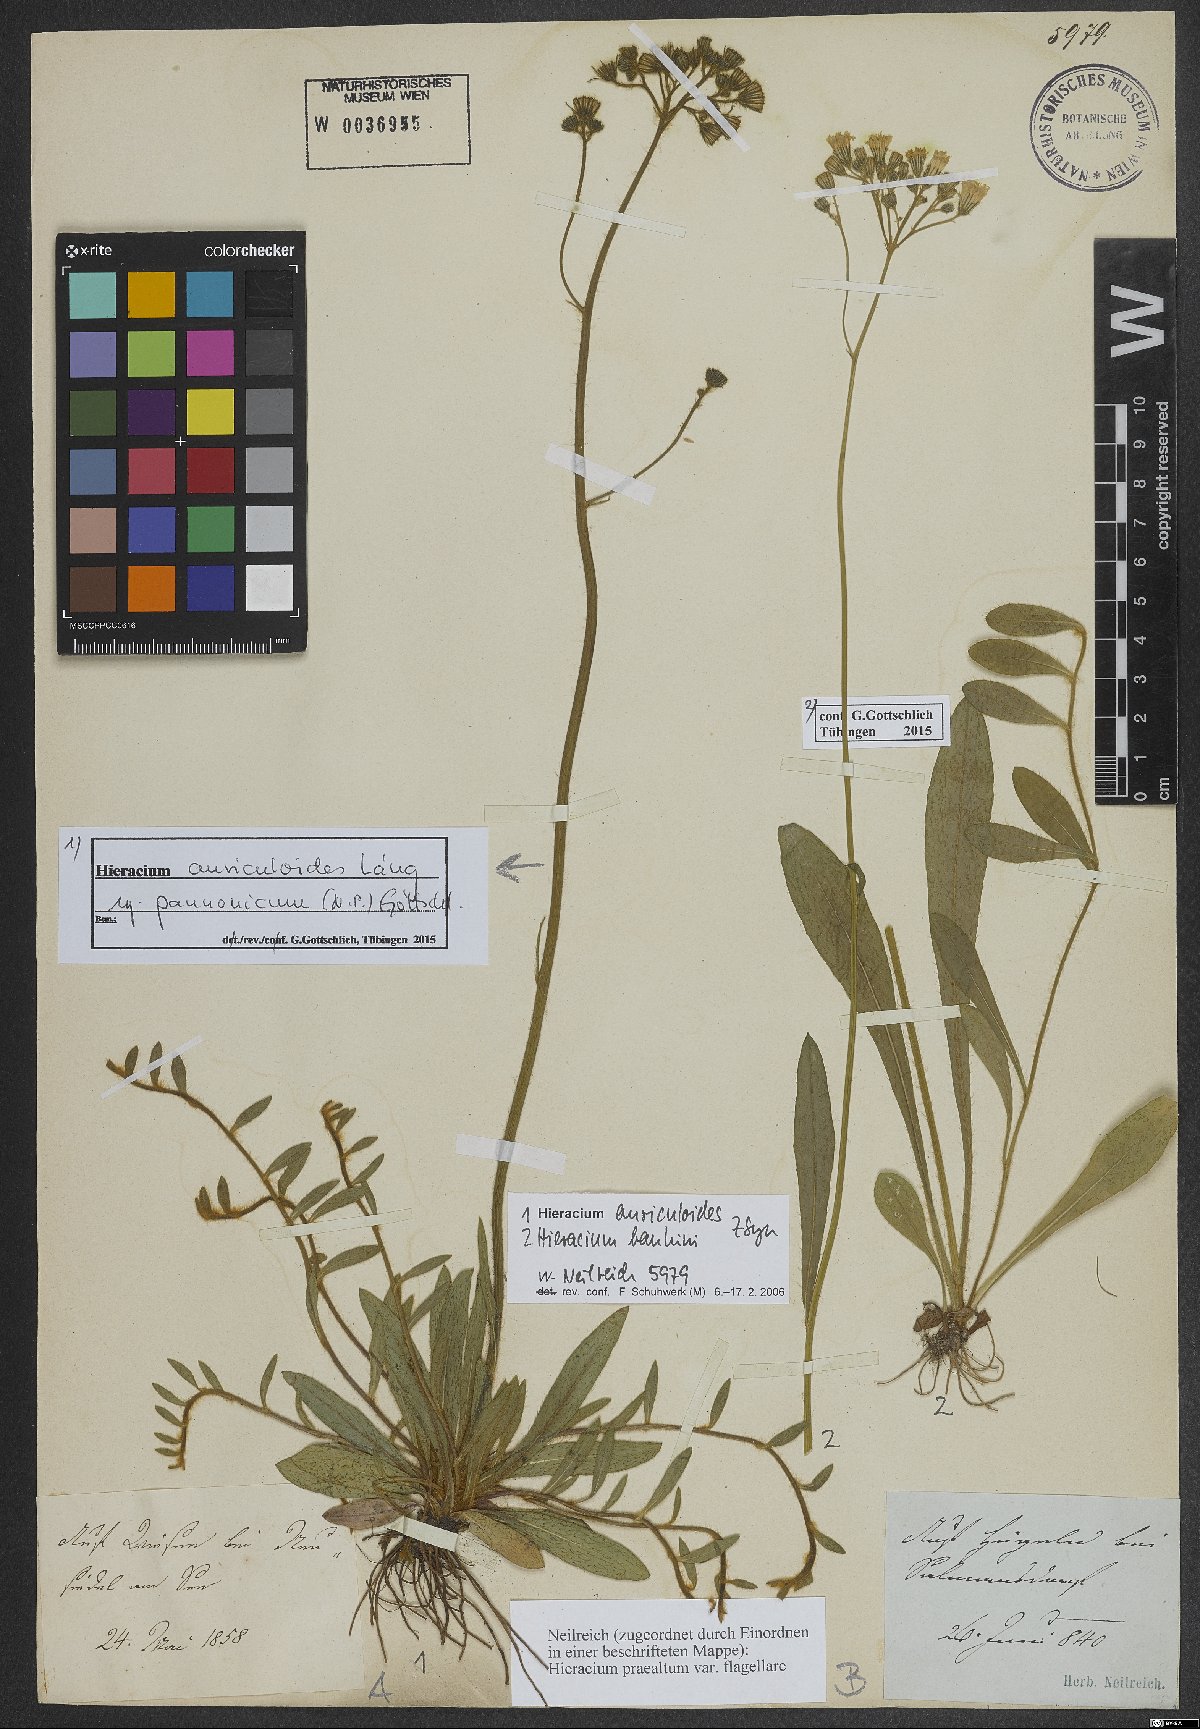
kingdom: Plantae
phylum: Tracheophyta
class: Magnoliopsida
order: Asterales
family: Asteraceae
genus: Pilosella
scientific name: Pilosella auriculoides
